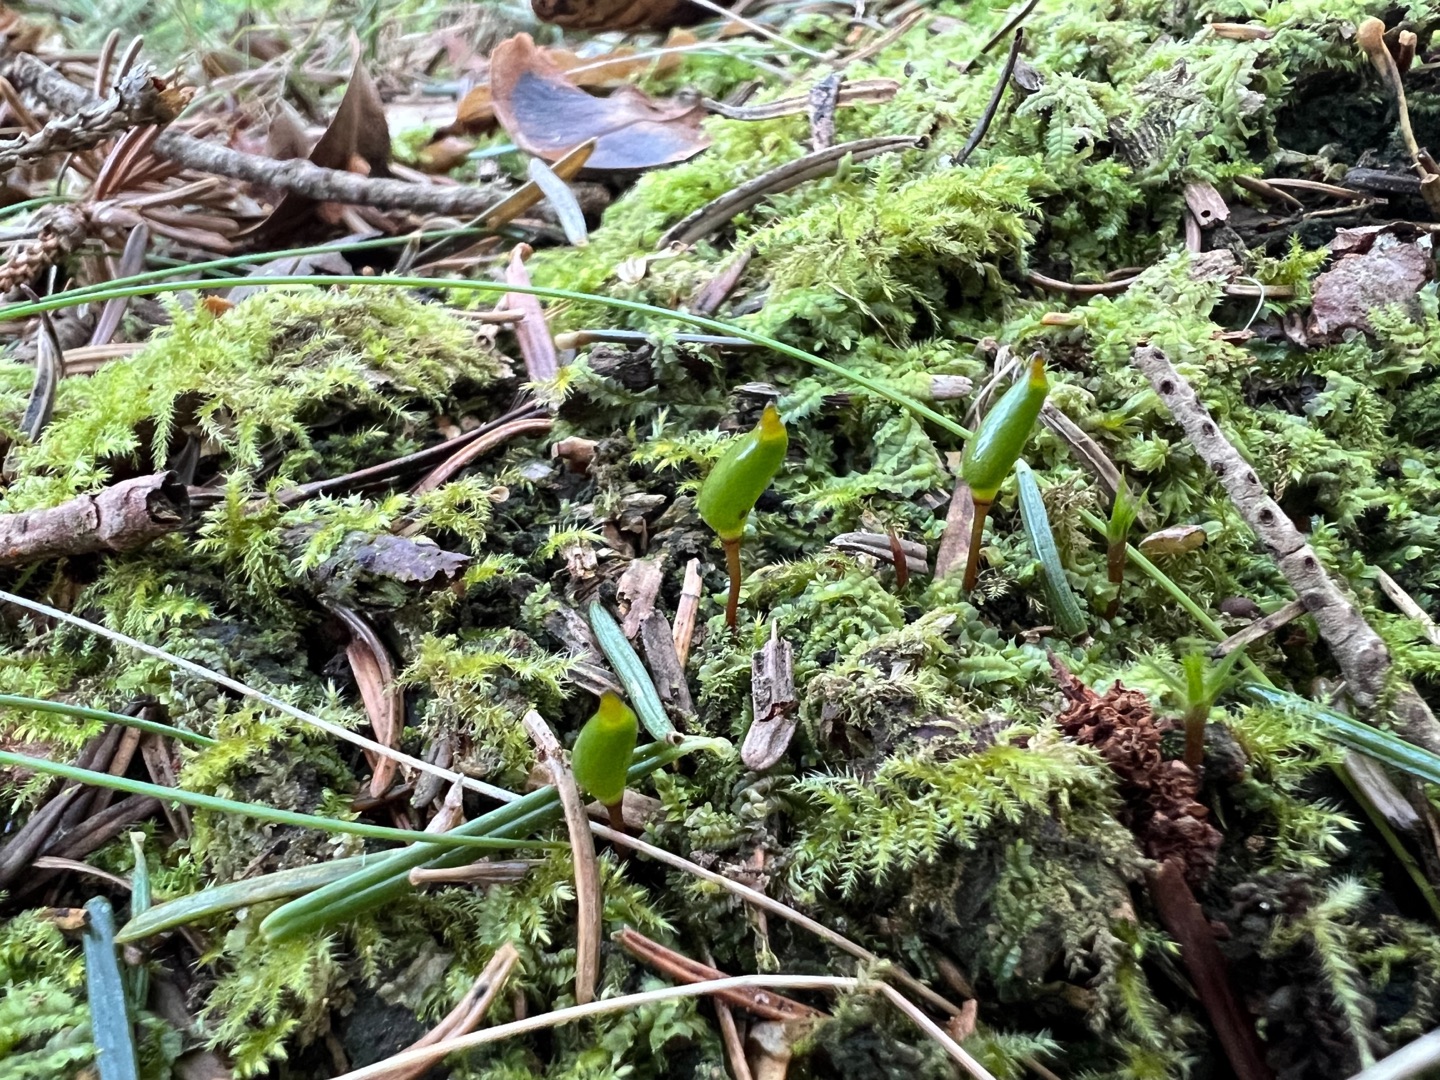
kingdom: Plantae
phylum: Bryophyta
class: Bryopsida
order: Buxbaumiales
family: Buxbaumiaceae
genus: Buxbaumia
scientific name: Buxbaumia viridis
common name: Grøn buxbaumia
